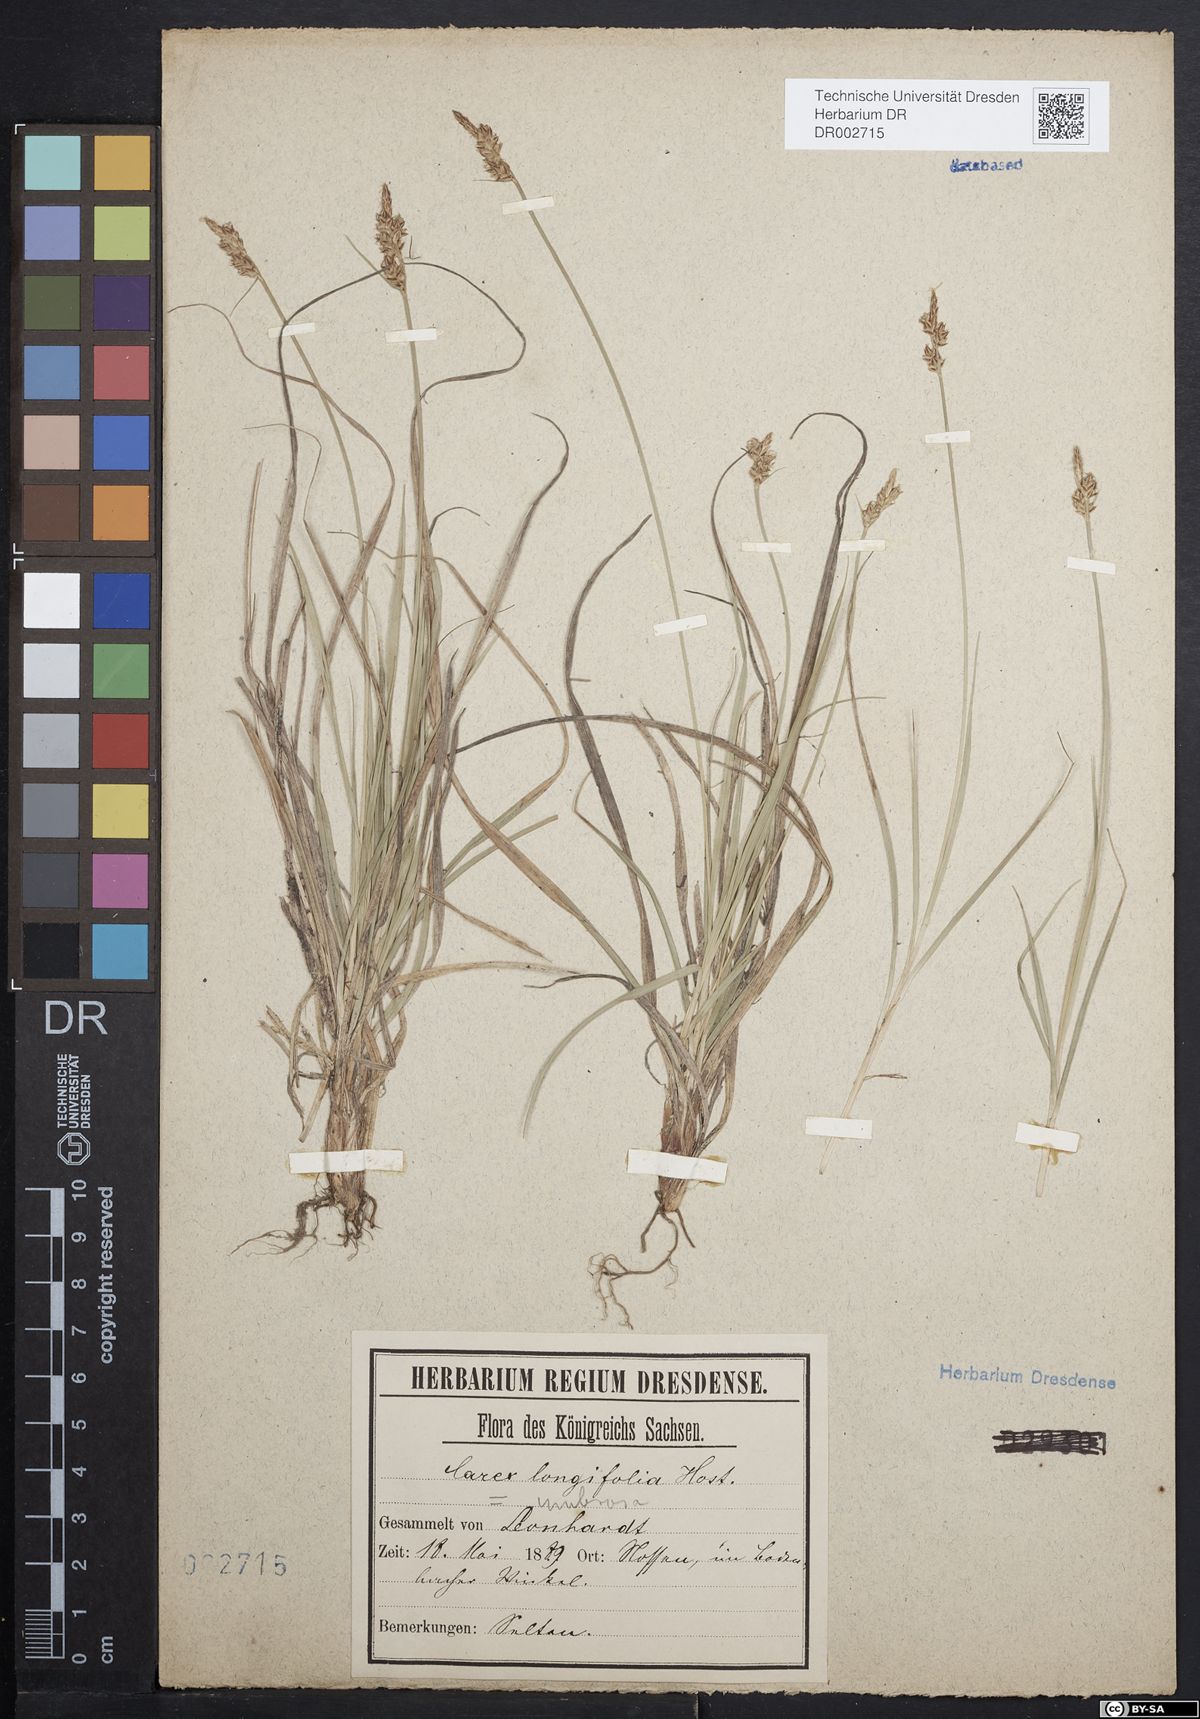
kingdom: Plantae
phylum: Tracheophyta
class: Liliopsida
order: Poales
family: Cyperaceae
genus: Carex
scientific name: Carex umbrosa
